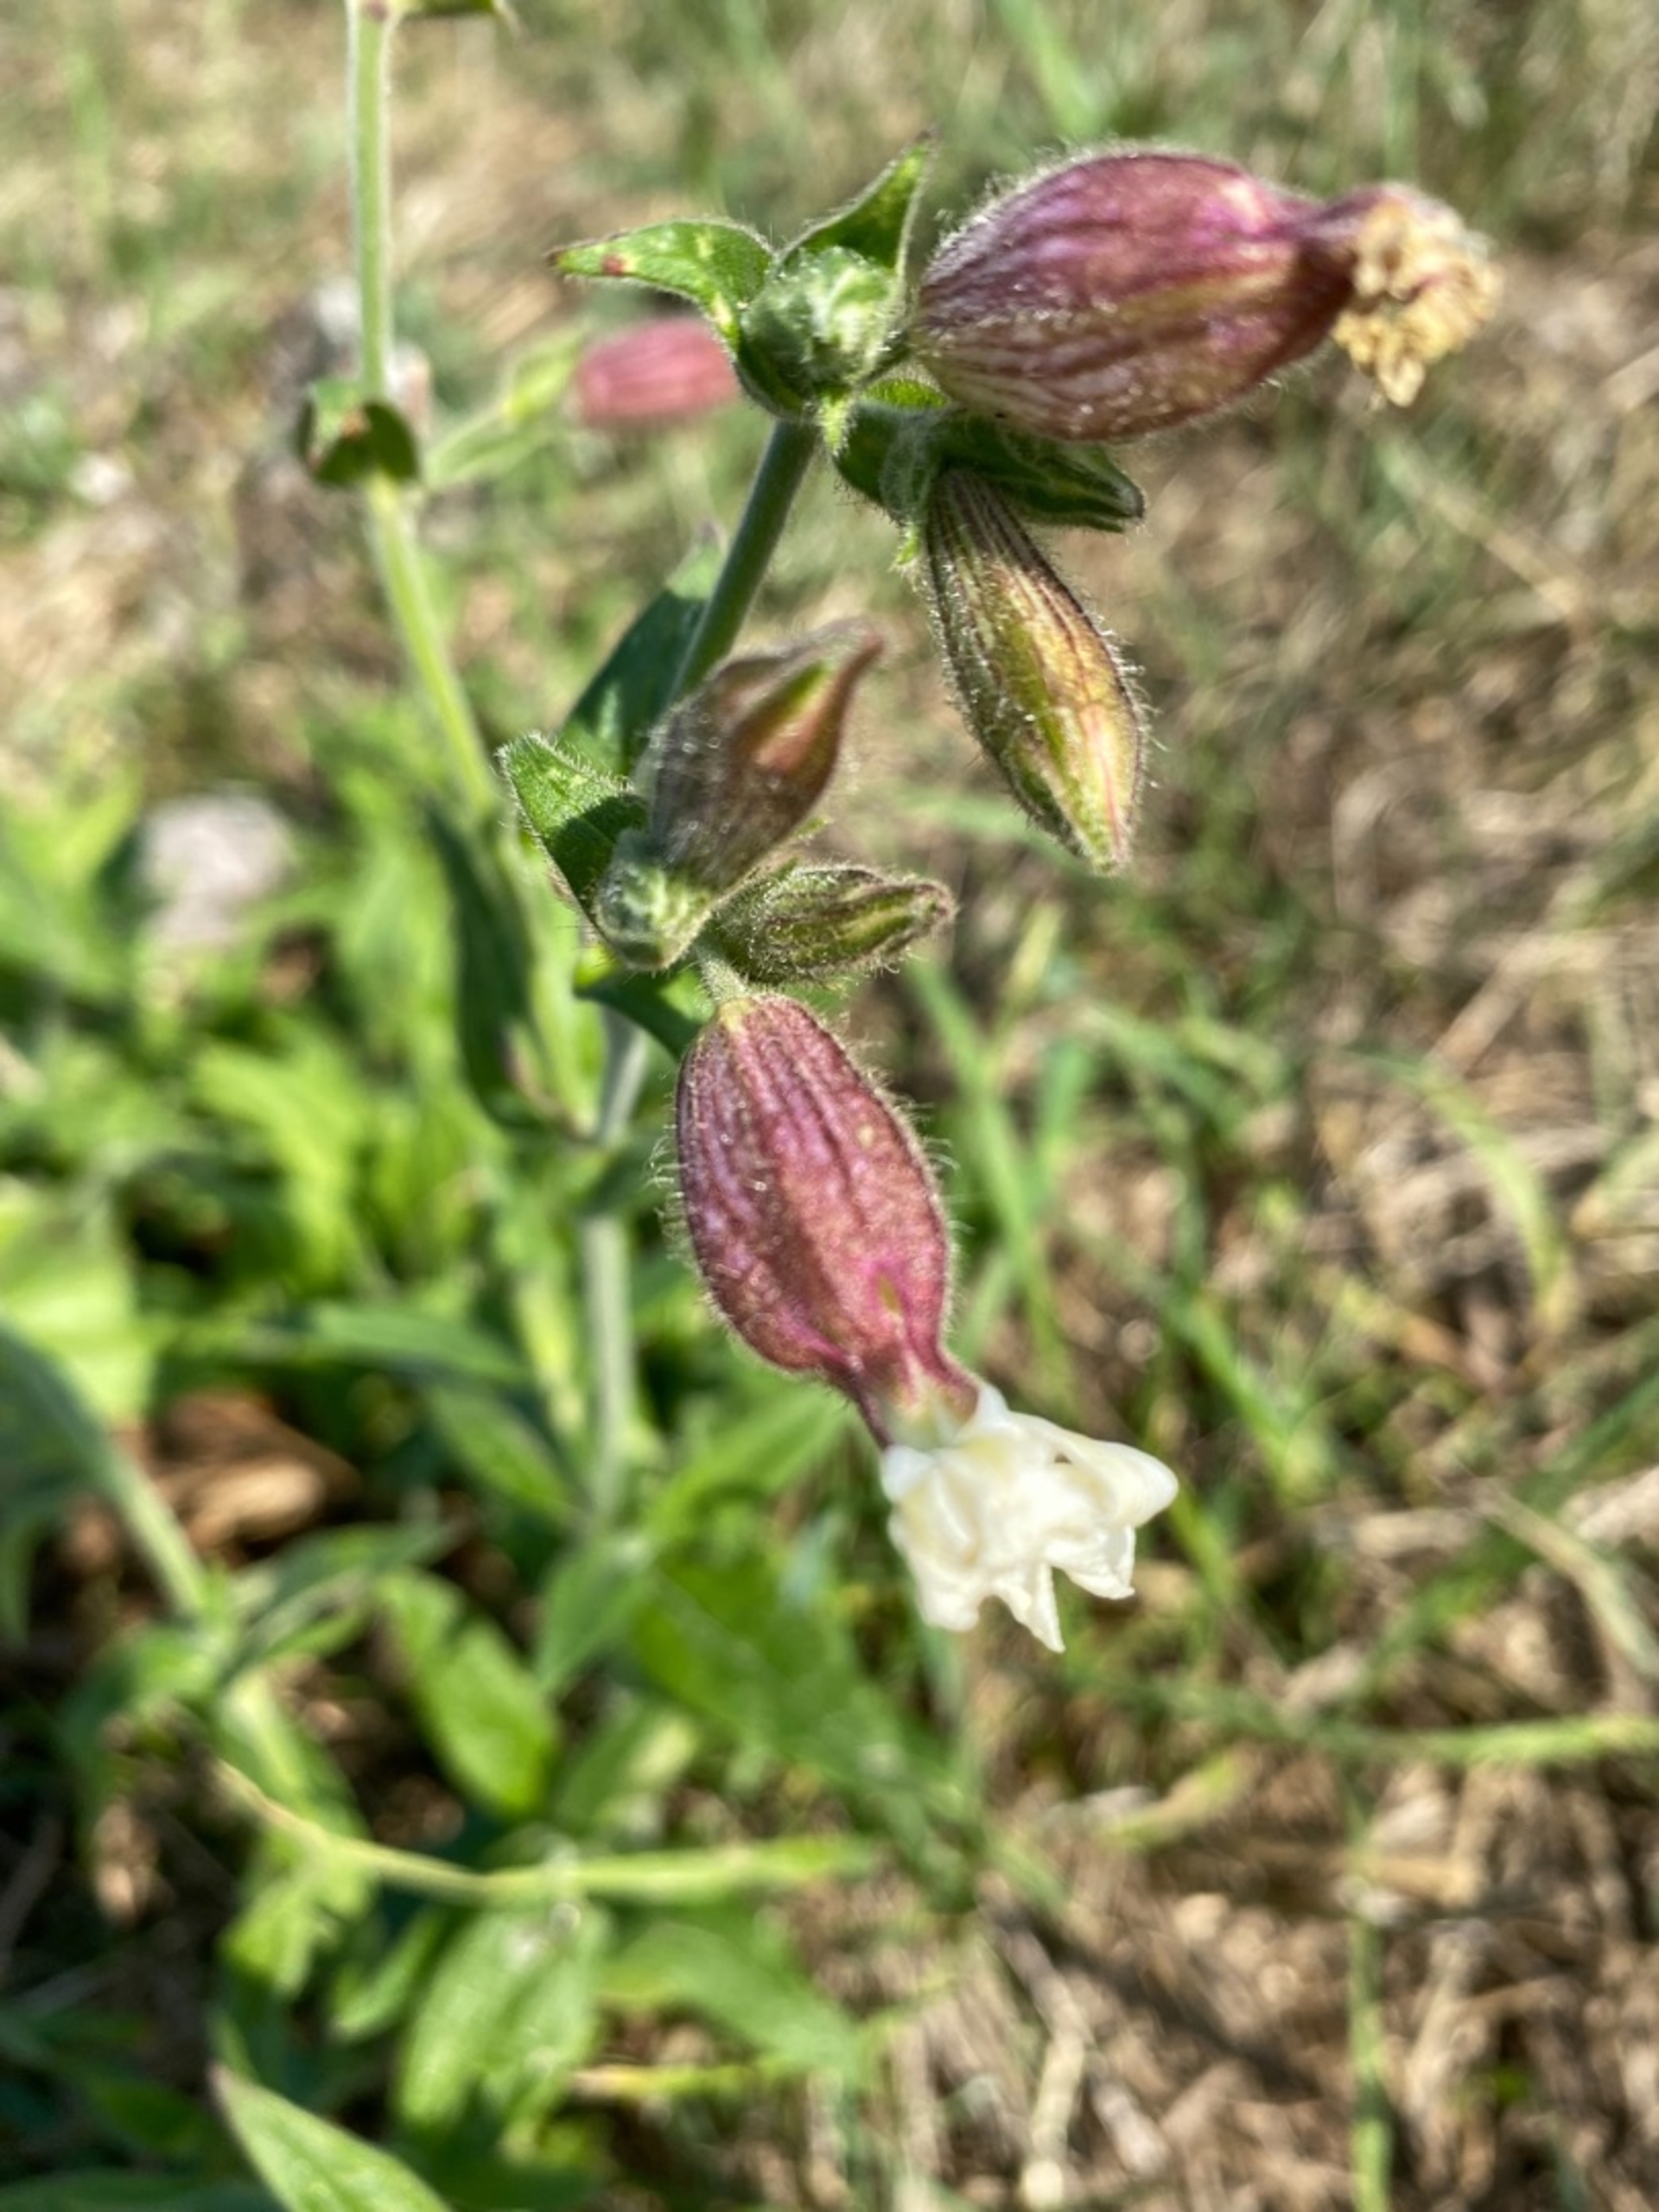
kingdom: Plantae
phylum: Tracheophyta
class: Magnoliopsida
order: Caryophyllales
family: Caryophyllaceae
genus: Silene
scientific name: Silene latifolia
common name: Aftenpragtstjerne
